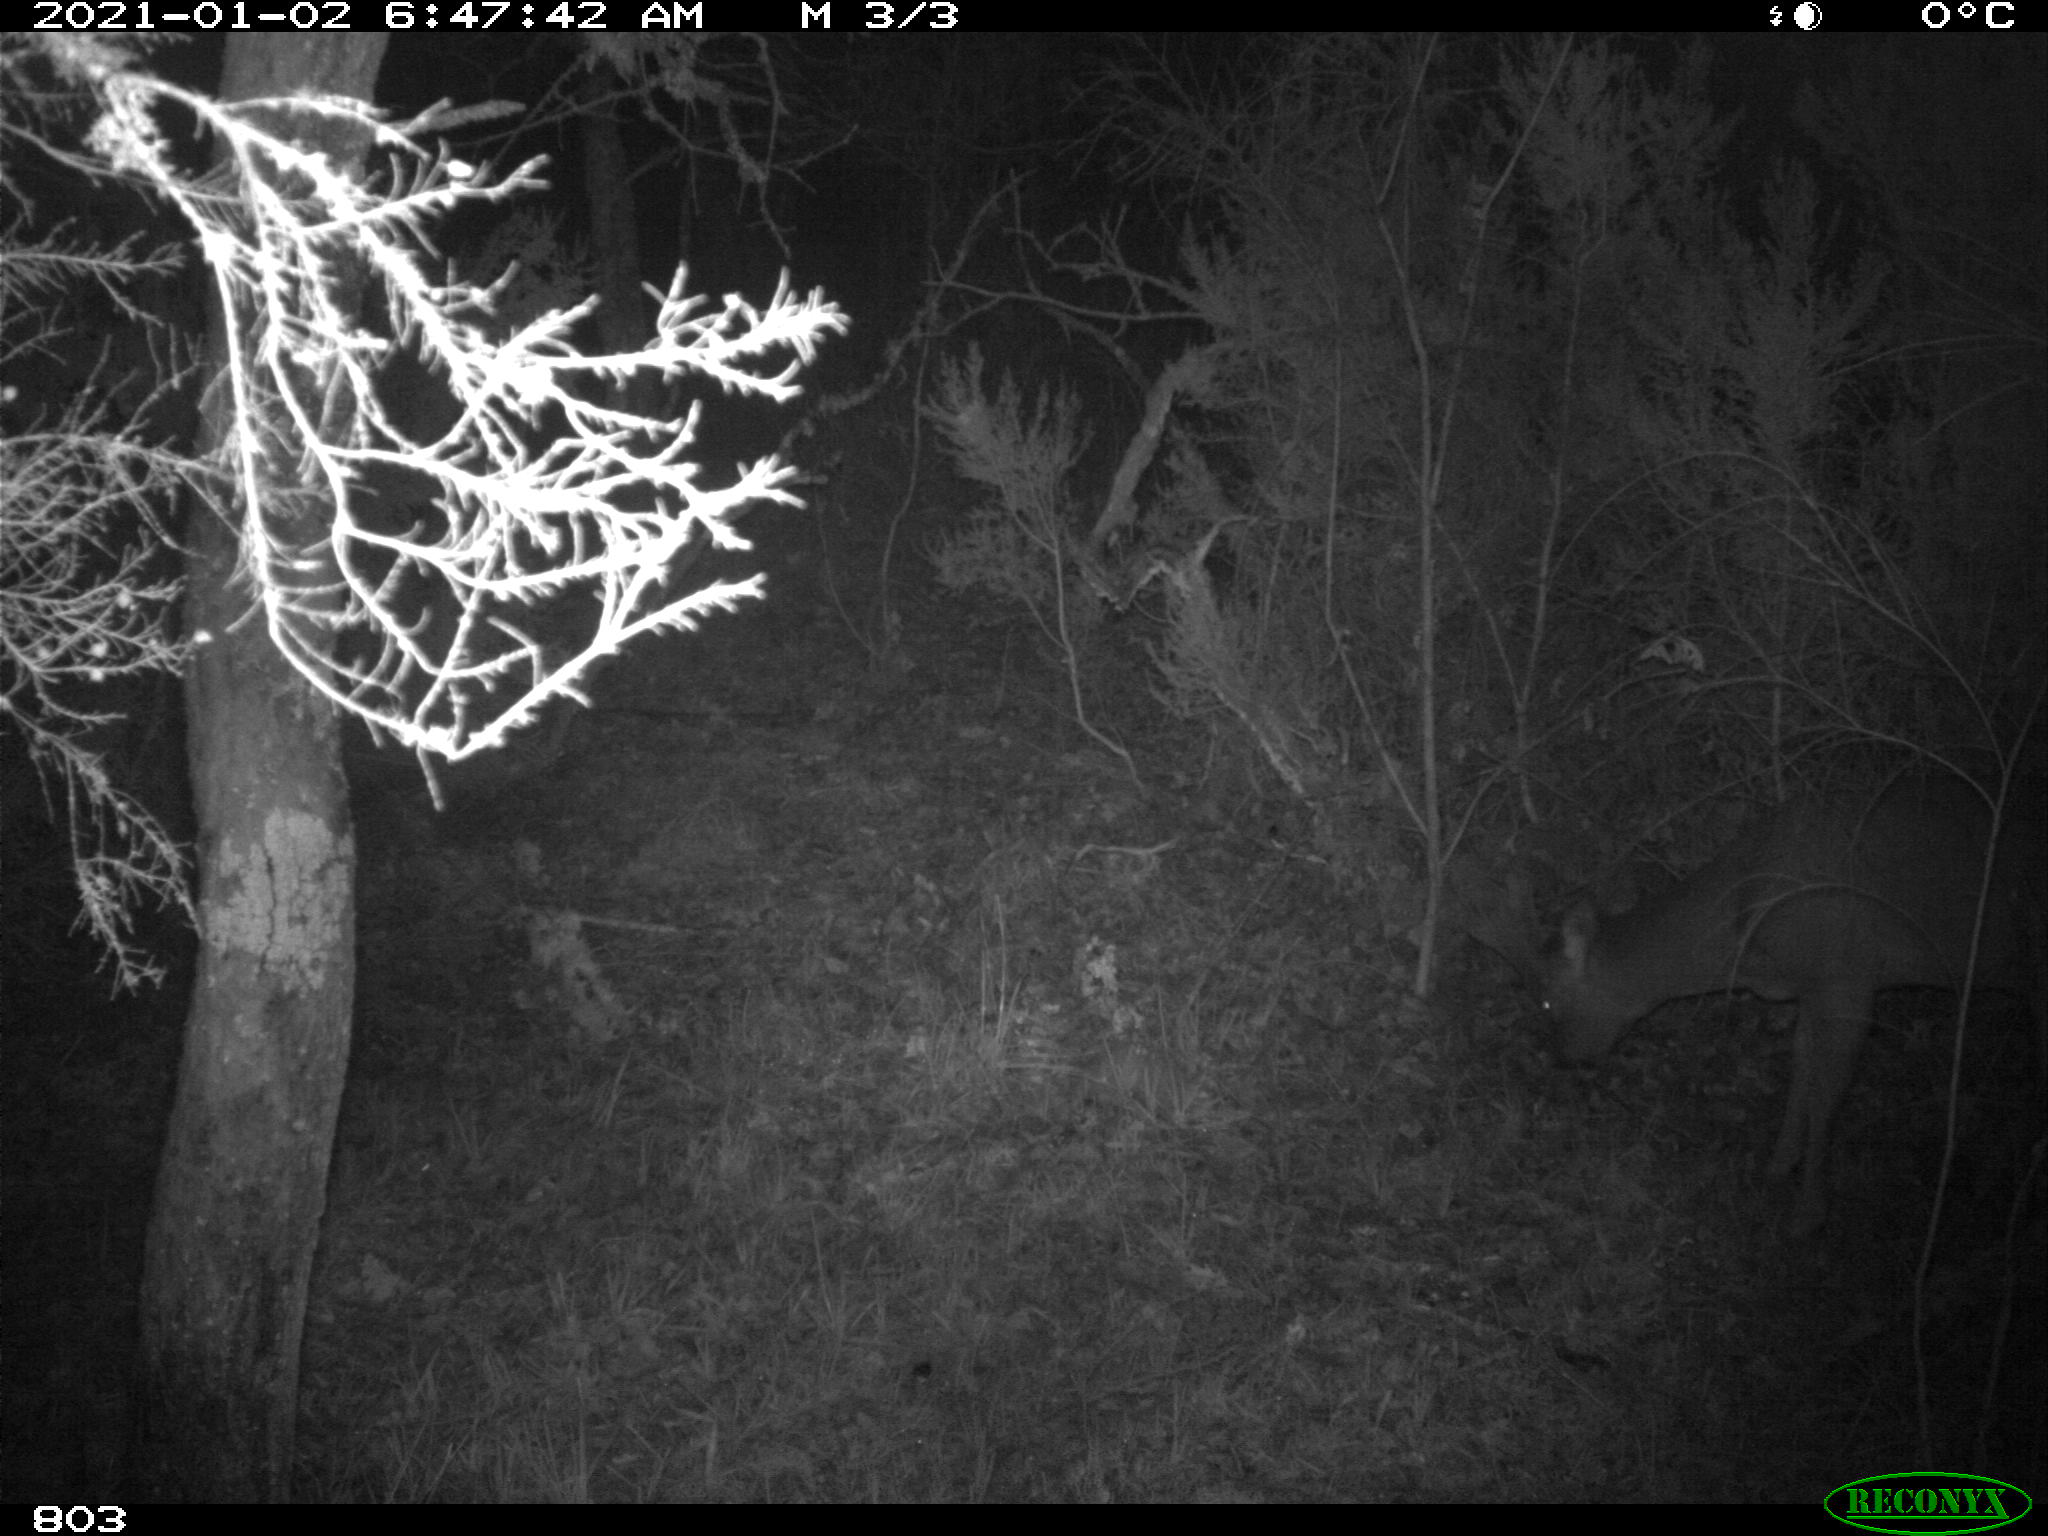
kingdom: Animalia
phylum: Chordata
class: Mammalia
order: Artiodactyla
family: Cervidae
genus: Capreolus
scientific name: Capreolus capreolus
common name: Western roe deer
